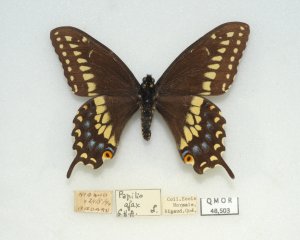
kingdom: Animalia
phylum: Arthropoda
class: Insecta
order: Lepidoptera
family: Papilionidae
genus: Papilio
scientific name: Papilio polyxenes
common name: Black Swallowtail
